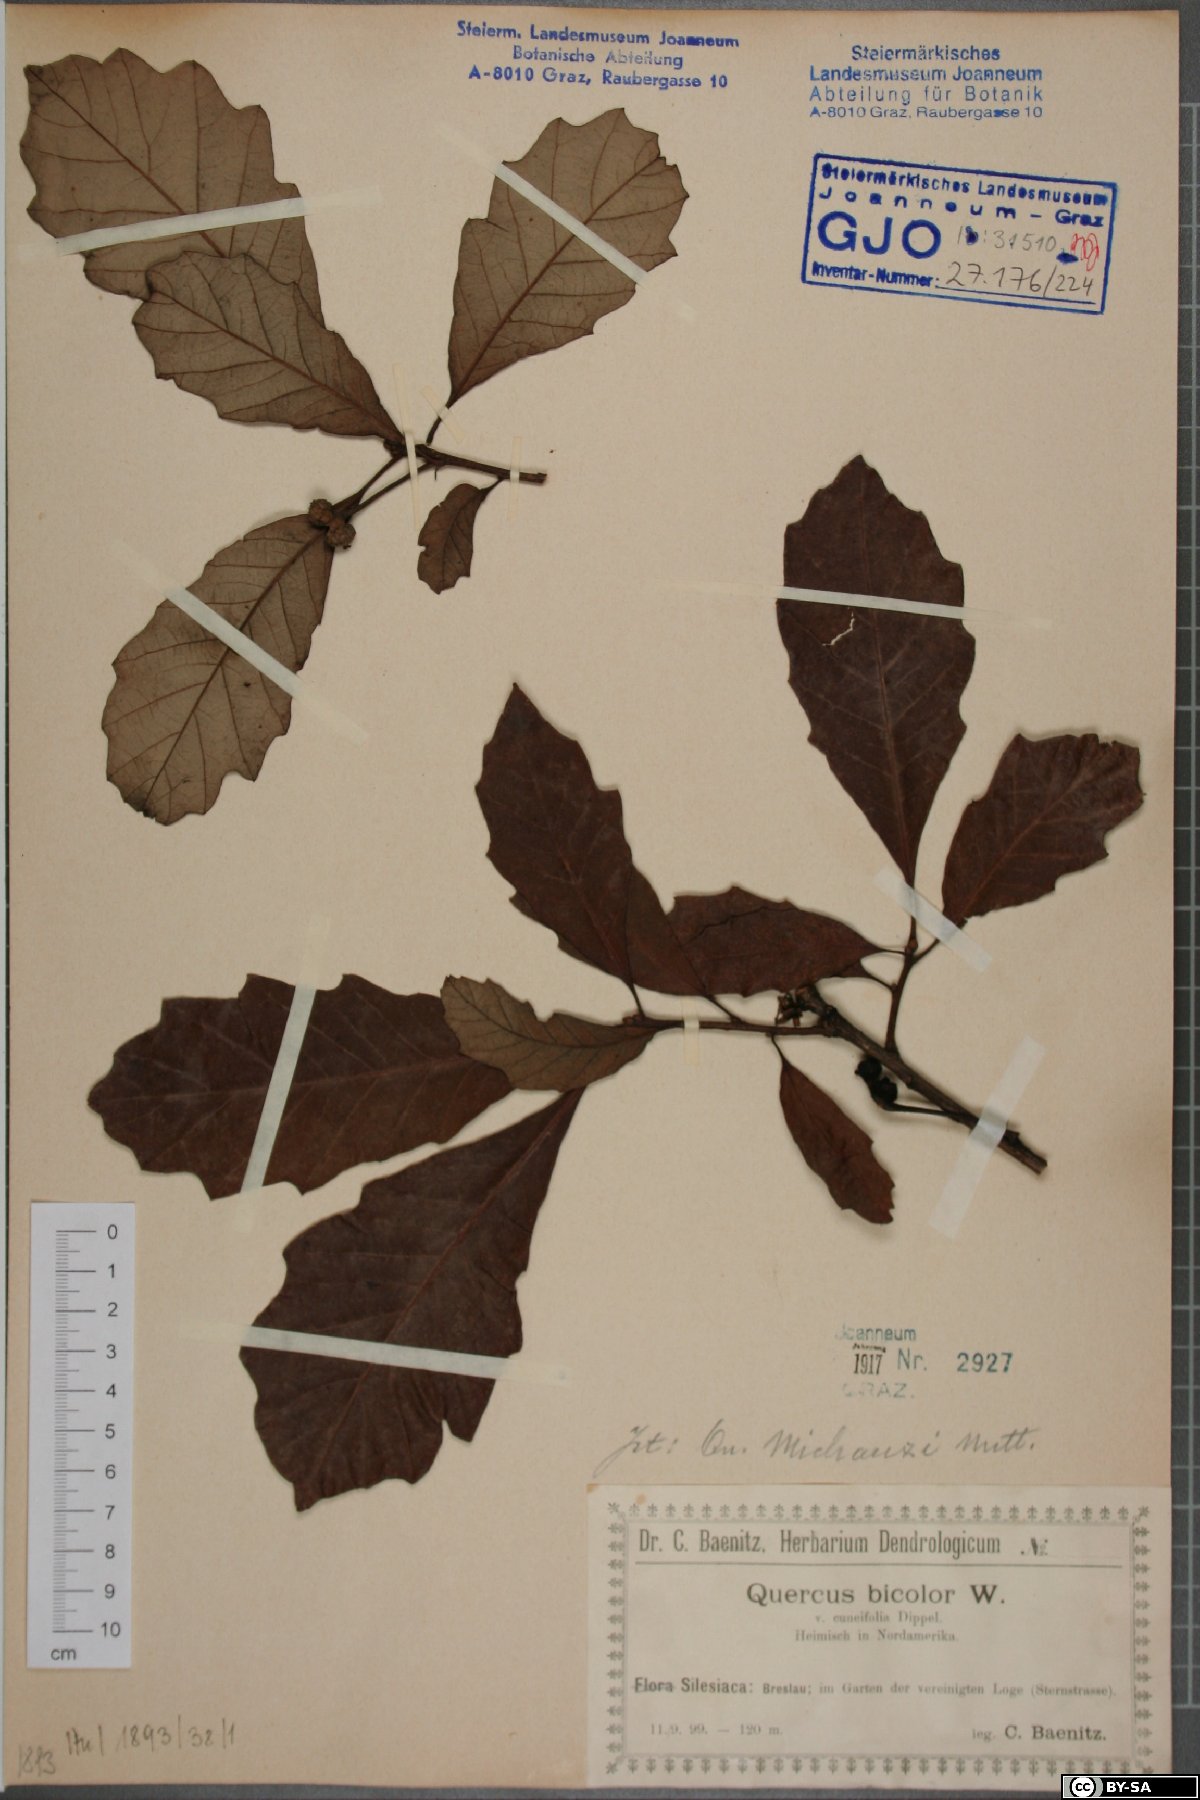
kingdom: Plantae
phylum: Tracheophyta
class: Magnoliopsida
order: Fagales
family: Fagaceae
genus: Quercus
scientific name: Quercus bicolor
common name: Swamp white oak
